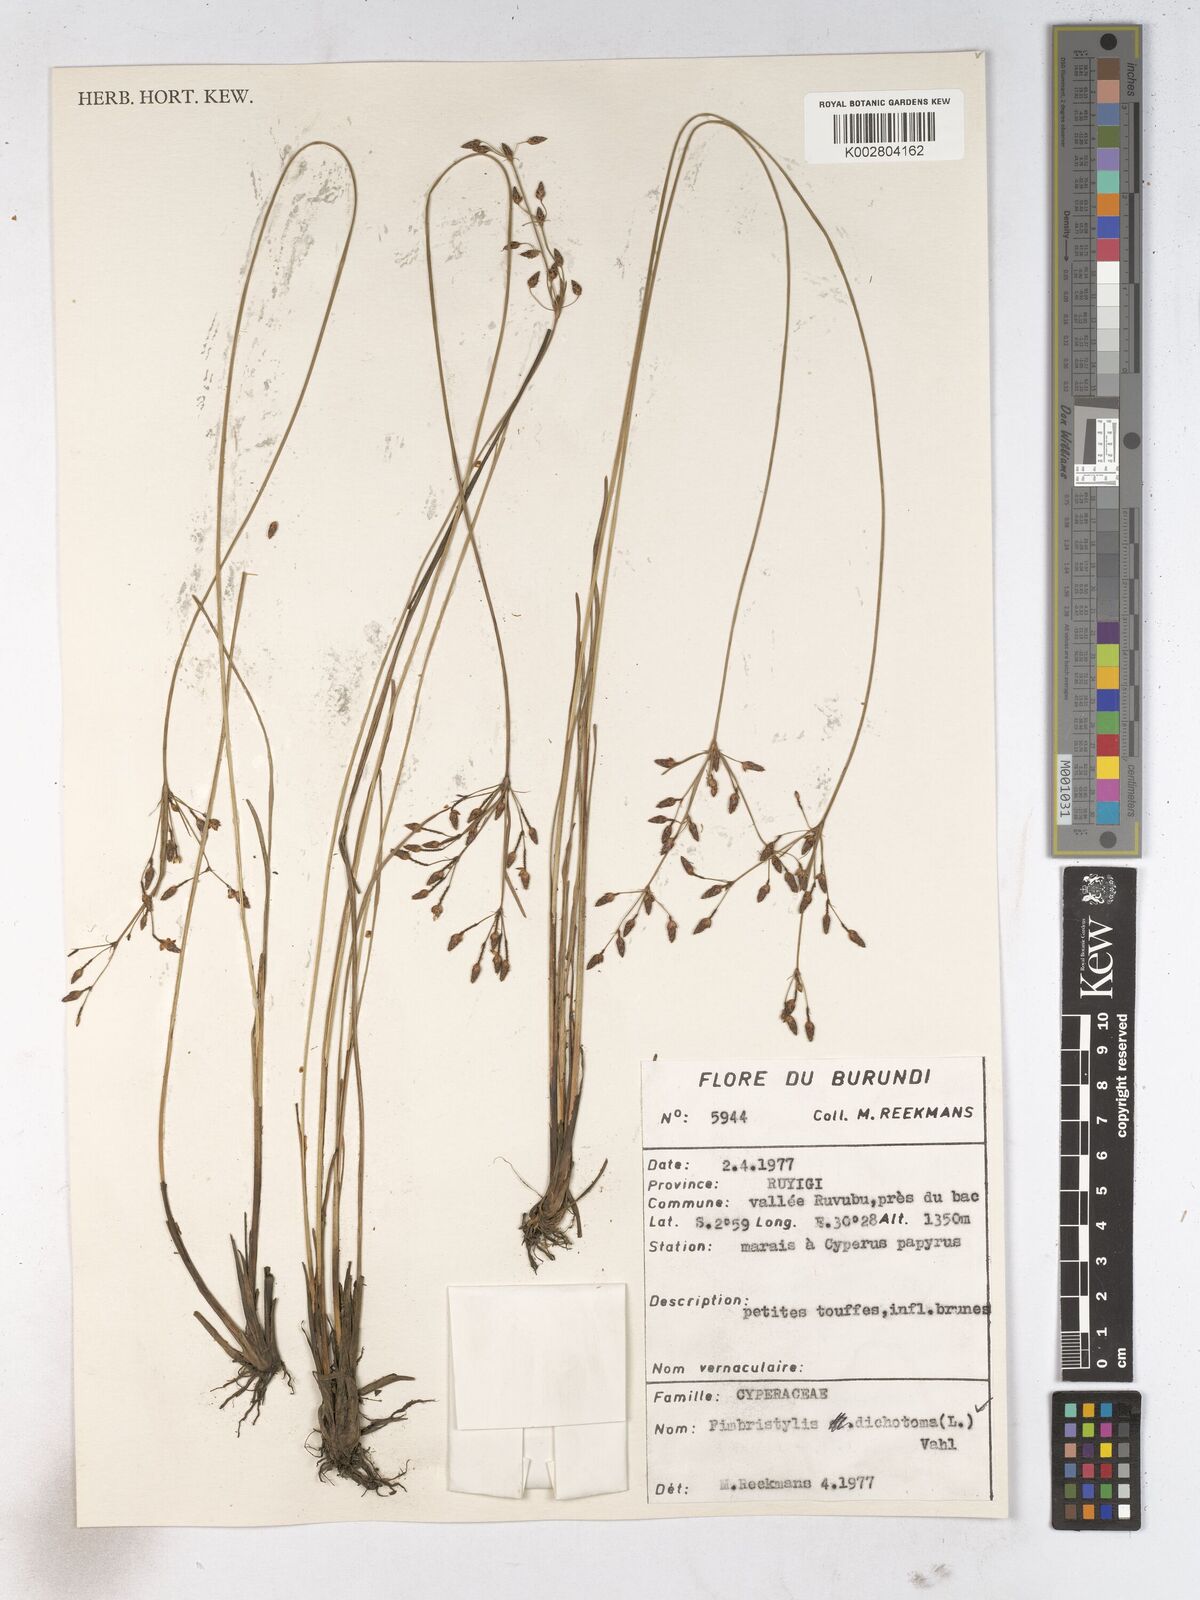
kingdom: Plantae
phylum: Tracheophyta
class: Liliopsida
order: Poales
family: Cyperaceae
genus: Fimbristylis
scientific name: Fimbristylis dichotoma
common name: Forked fimbry
